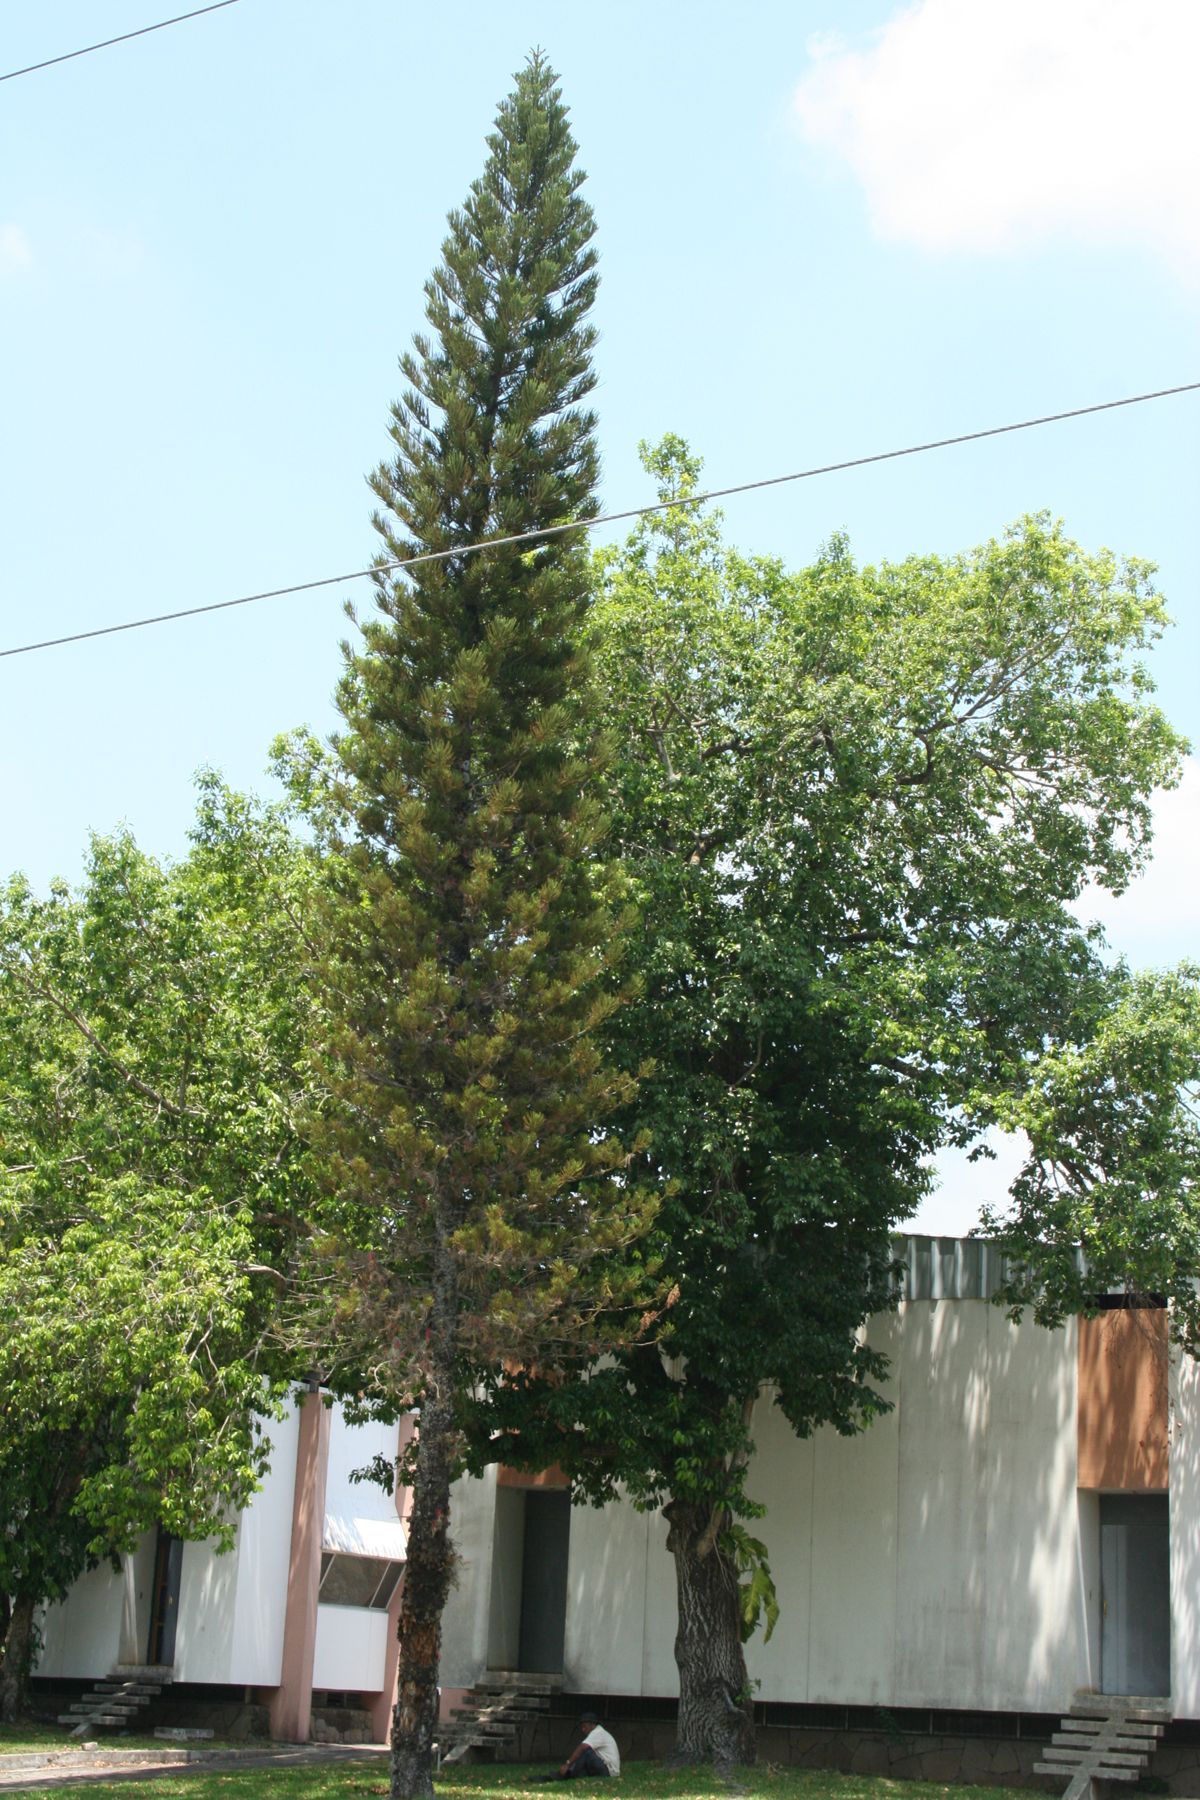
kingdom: Plantae
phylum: Tracheophyta
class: Pinopsida
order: Pinales
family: Araucariaceae
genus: Araucaria
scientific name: Araucaria heterophylla
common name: Norfolk island pine
